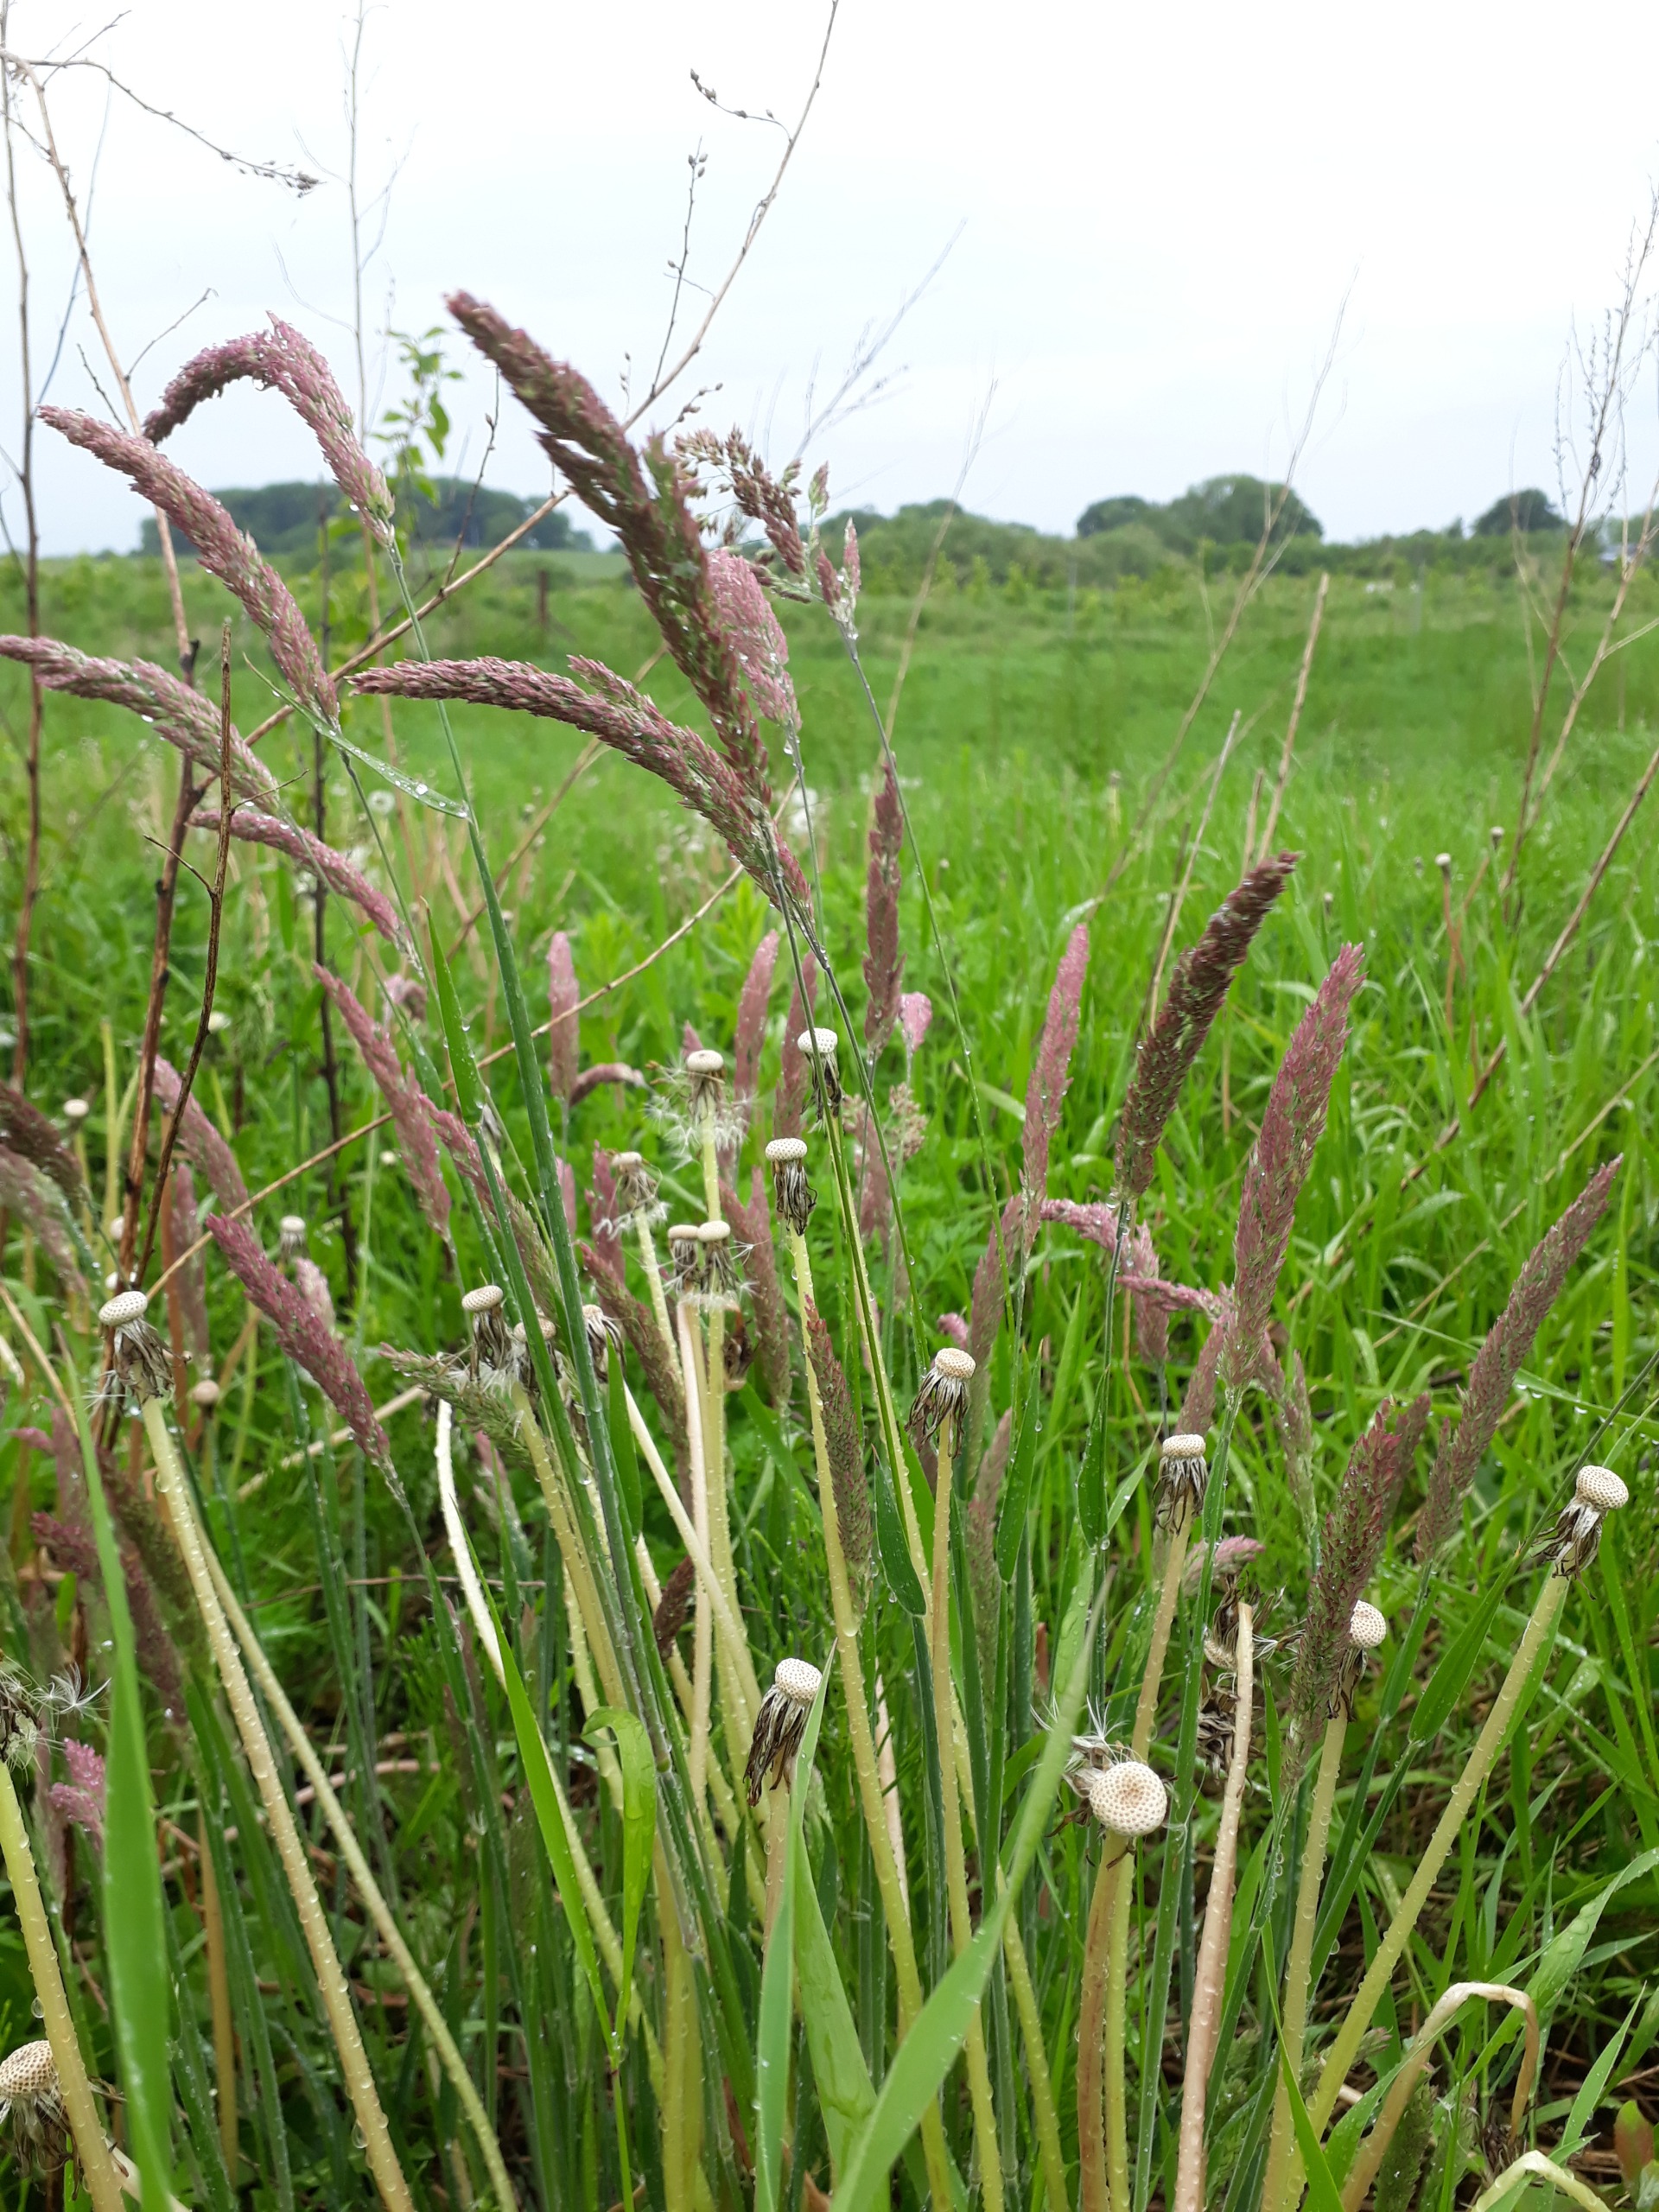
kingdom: Plantae
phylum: Tracheophyta
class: Liliopsida
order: Poales
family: Poaceae
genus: Holcus
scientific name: Holcus lanatus
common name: Fløjlsgræs
